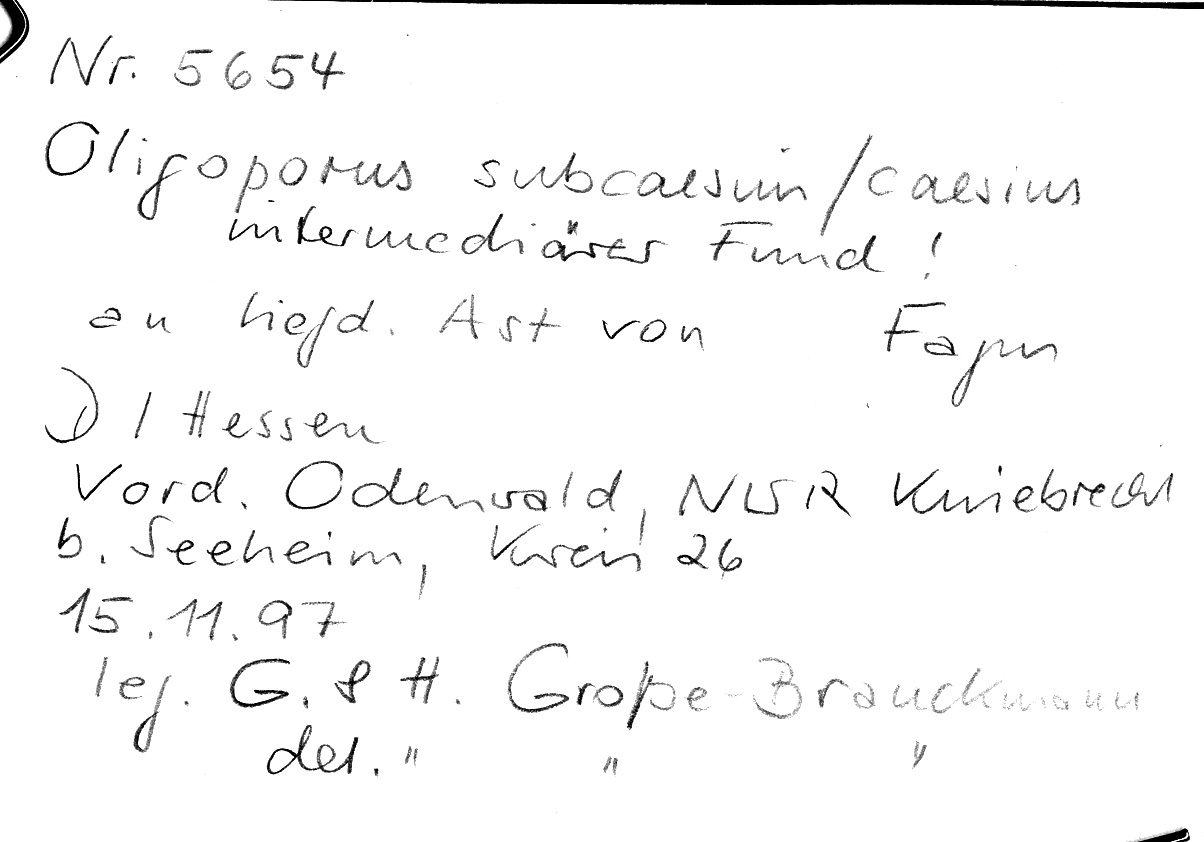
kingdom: Fungi
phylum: Basidiomycota
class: Agaricomycetes
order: Polyporales
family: Polyporaceae
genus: Cyanosporus
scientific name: Cyanosporus subcaesius
